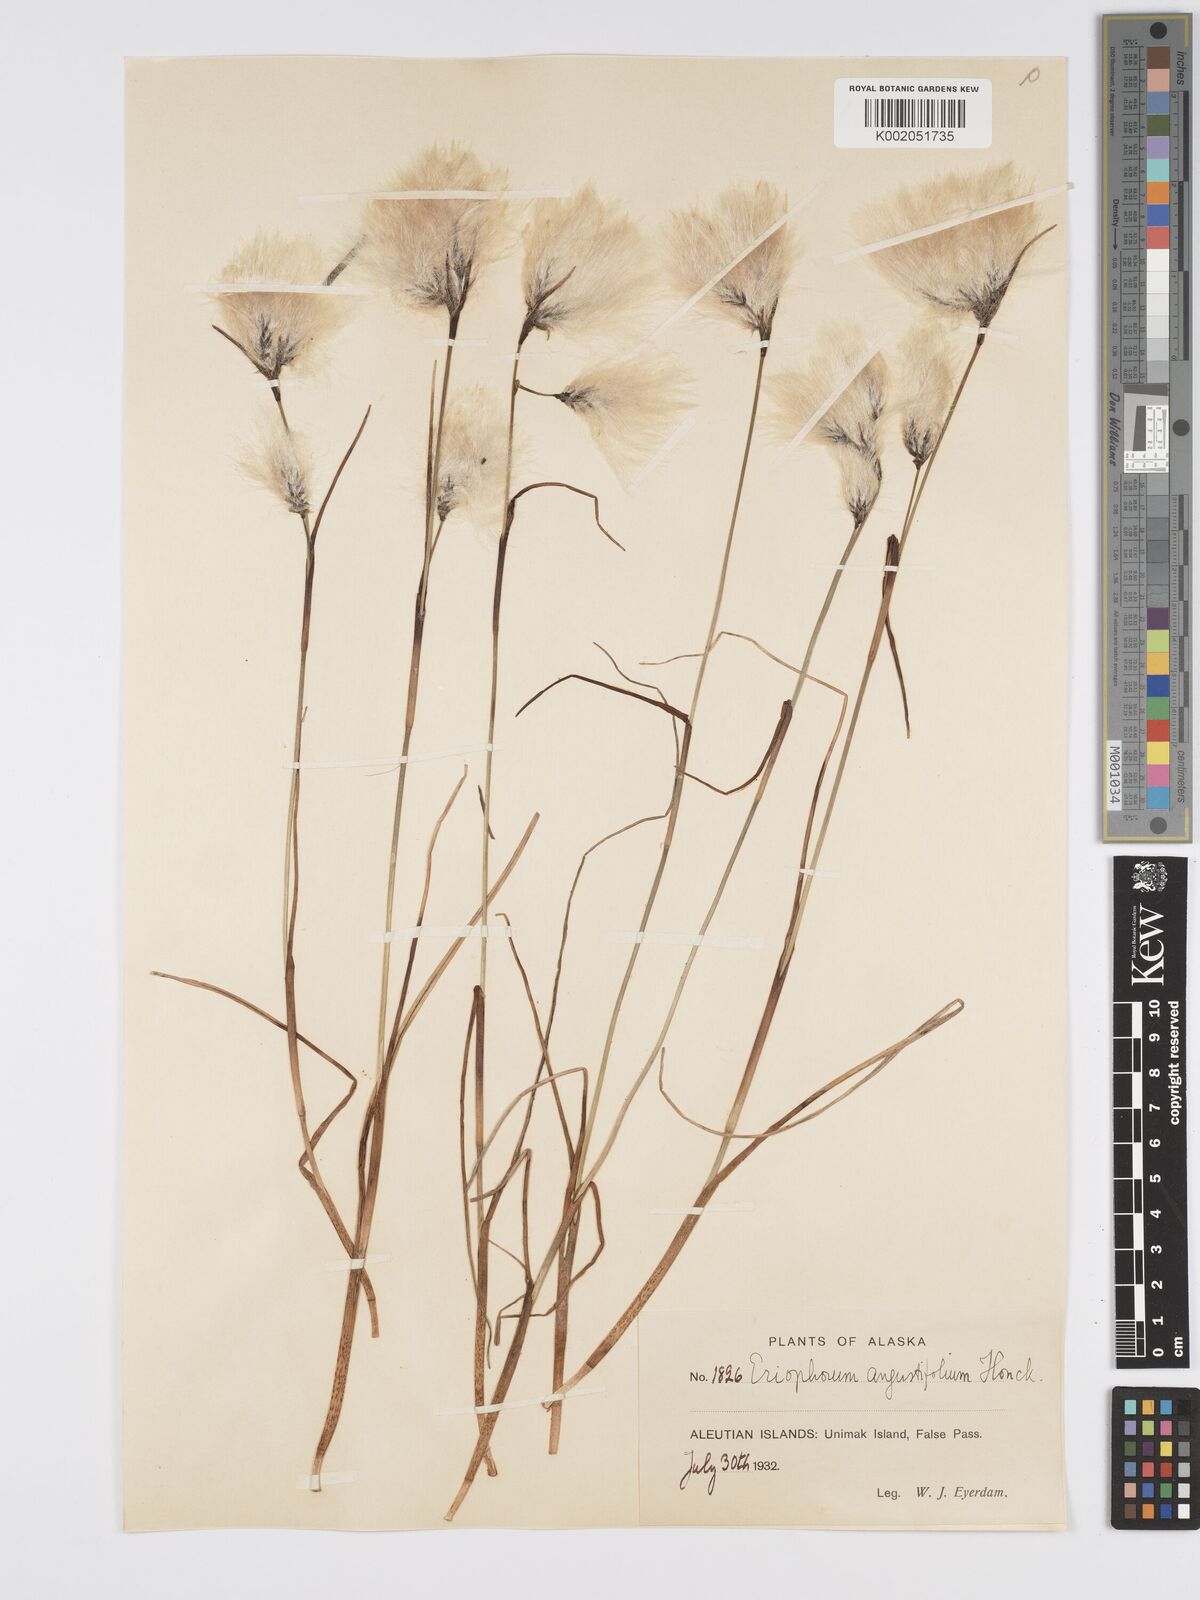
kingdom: Plantae
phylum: Tracheophyta
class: Liliopsida
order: Poales
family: Cyperaceae
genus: Eriophorum
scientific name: Eriophorum angustifolium
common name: Common cottongrass
